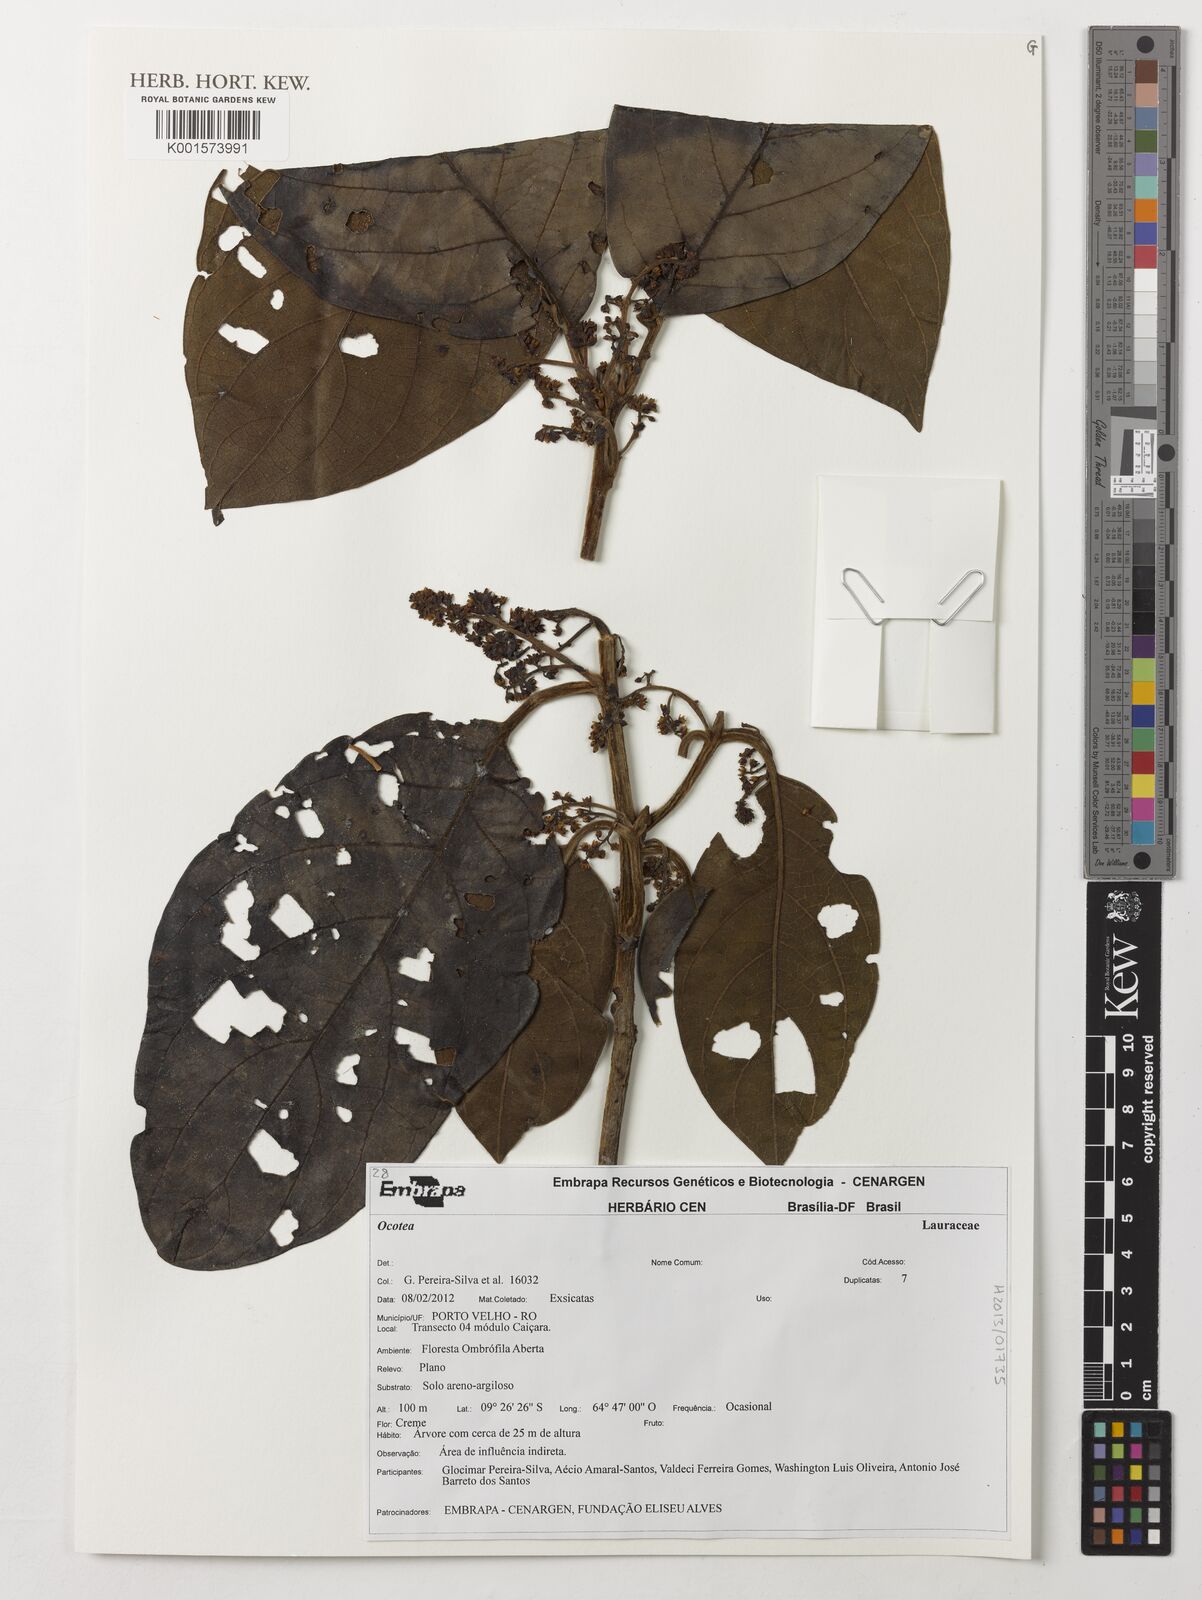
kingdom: Plantae
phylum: Tracheophyta
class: Magnoliopsida
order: Laurales
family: Lauraceae
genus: Ocotea
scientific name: Ocotea
